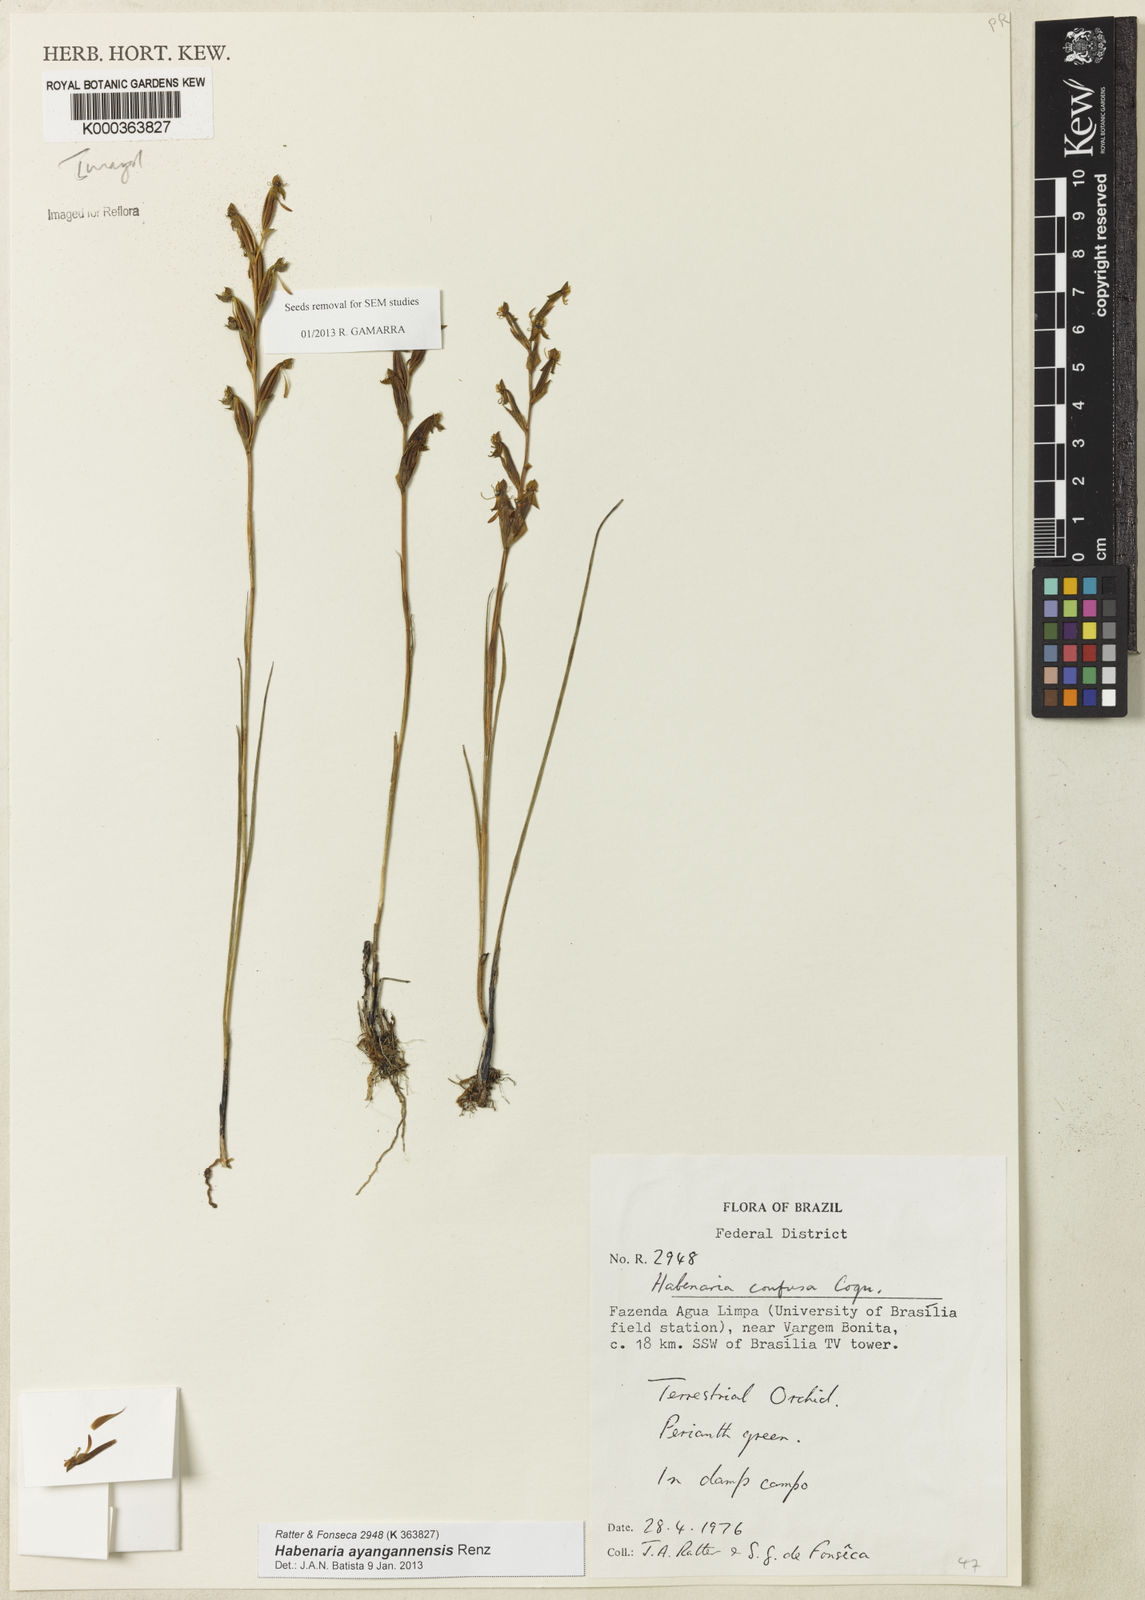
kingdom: Plantae
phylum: Tracheophyta
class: Liliopsida
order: Asparagales
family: Orchidaceae
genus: Habenaria
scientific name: Habenaria secundiflora
